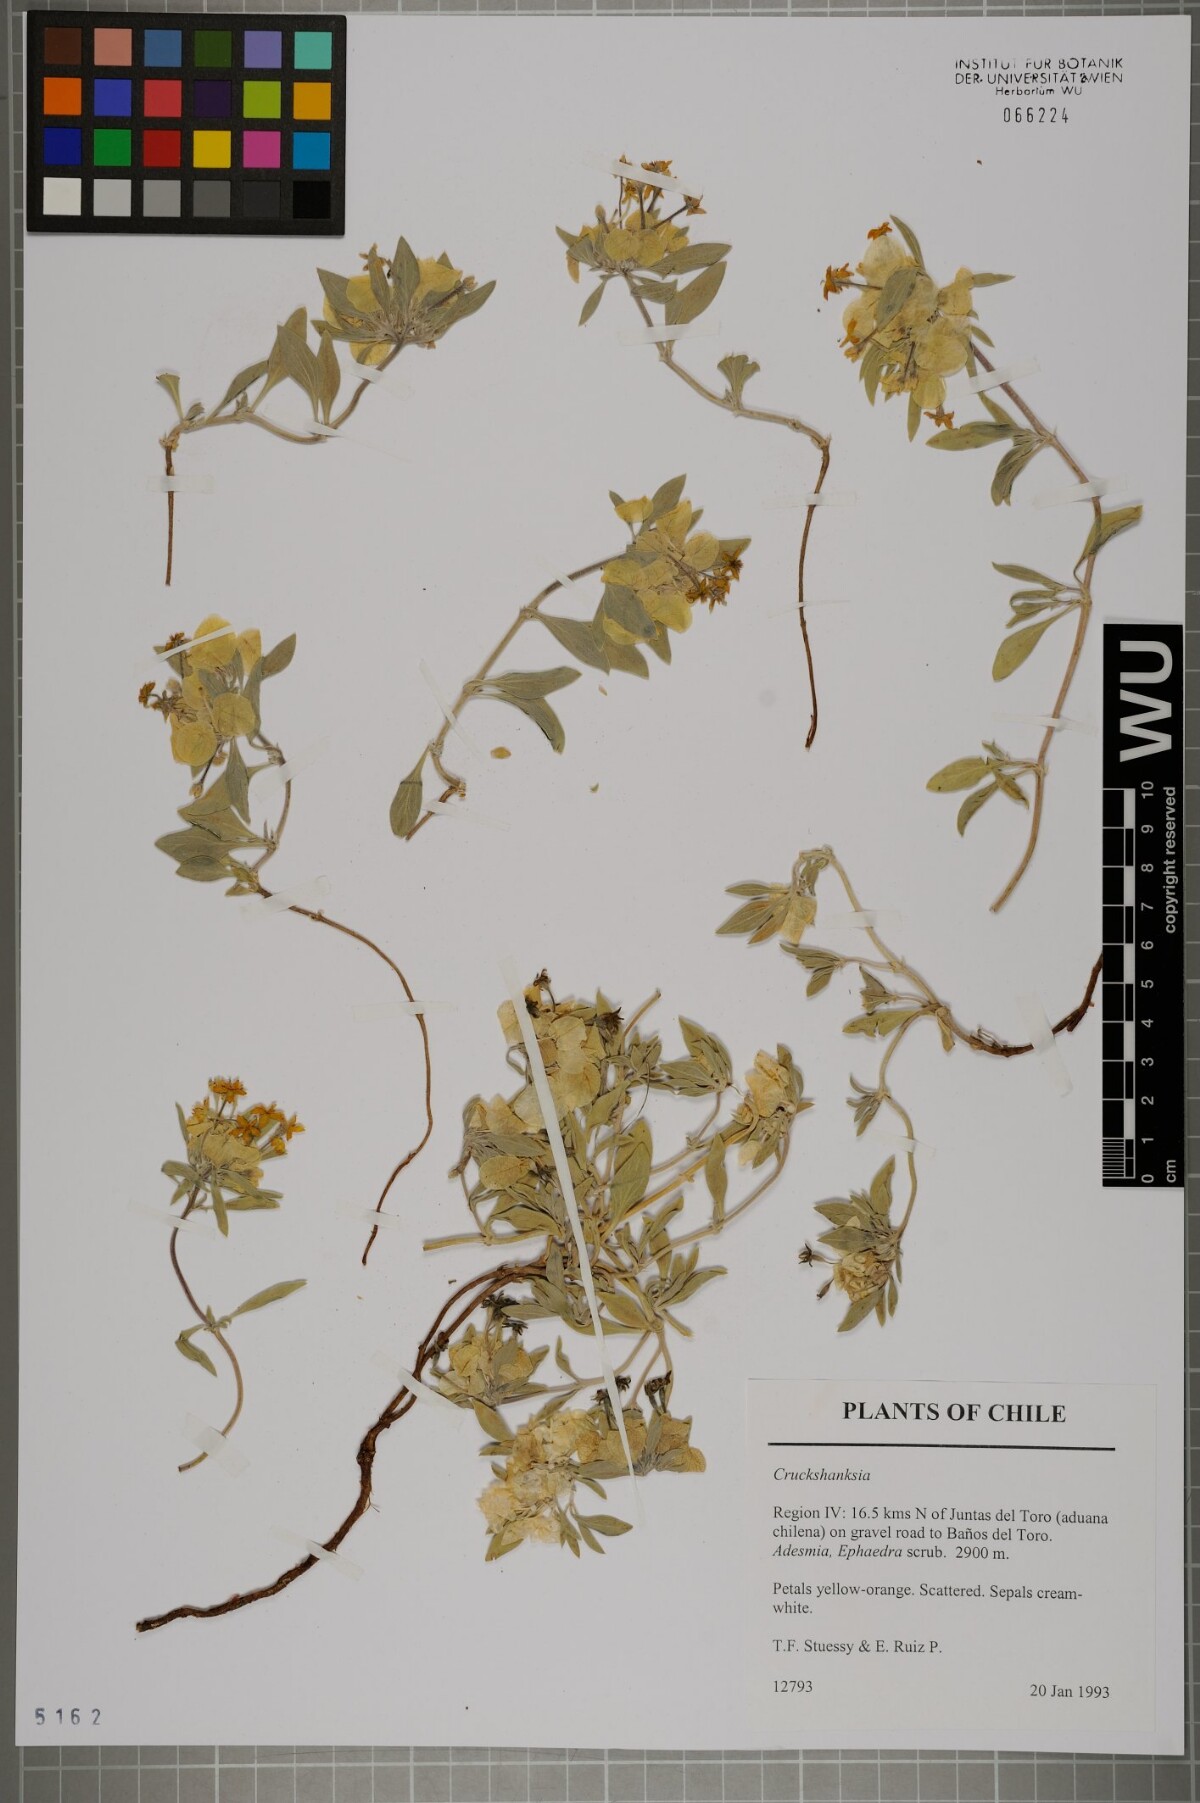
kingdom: Plantae
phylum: Tracheophyta
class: Magnoliopsida
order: Gentianales
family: Rubiaceae
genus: Cruckshanksia
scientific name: Cruckshanksia
